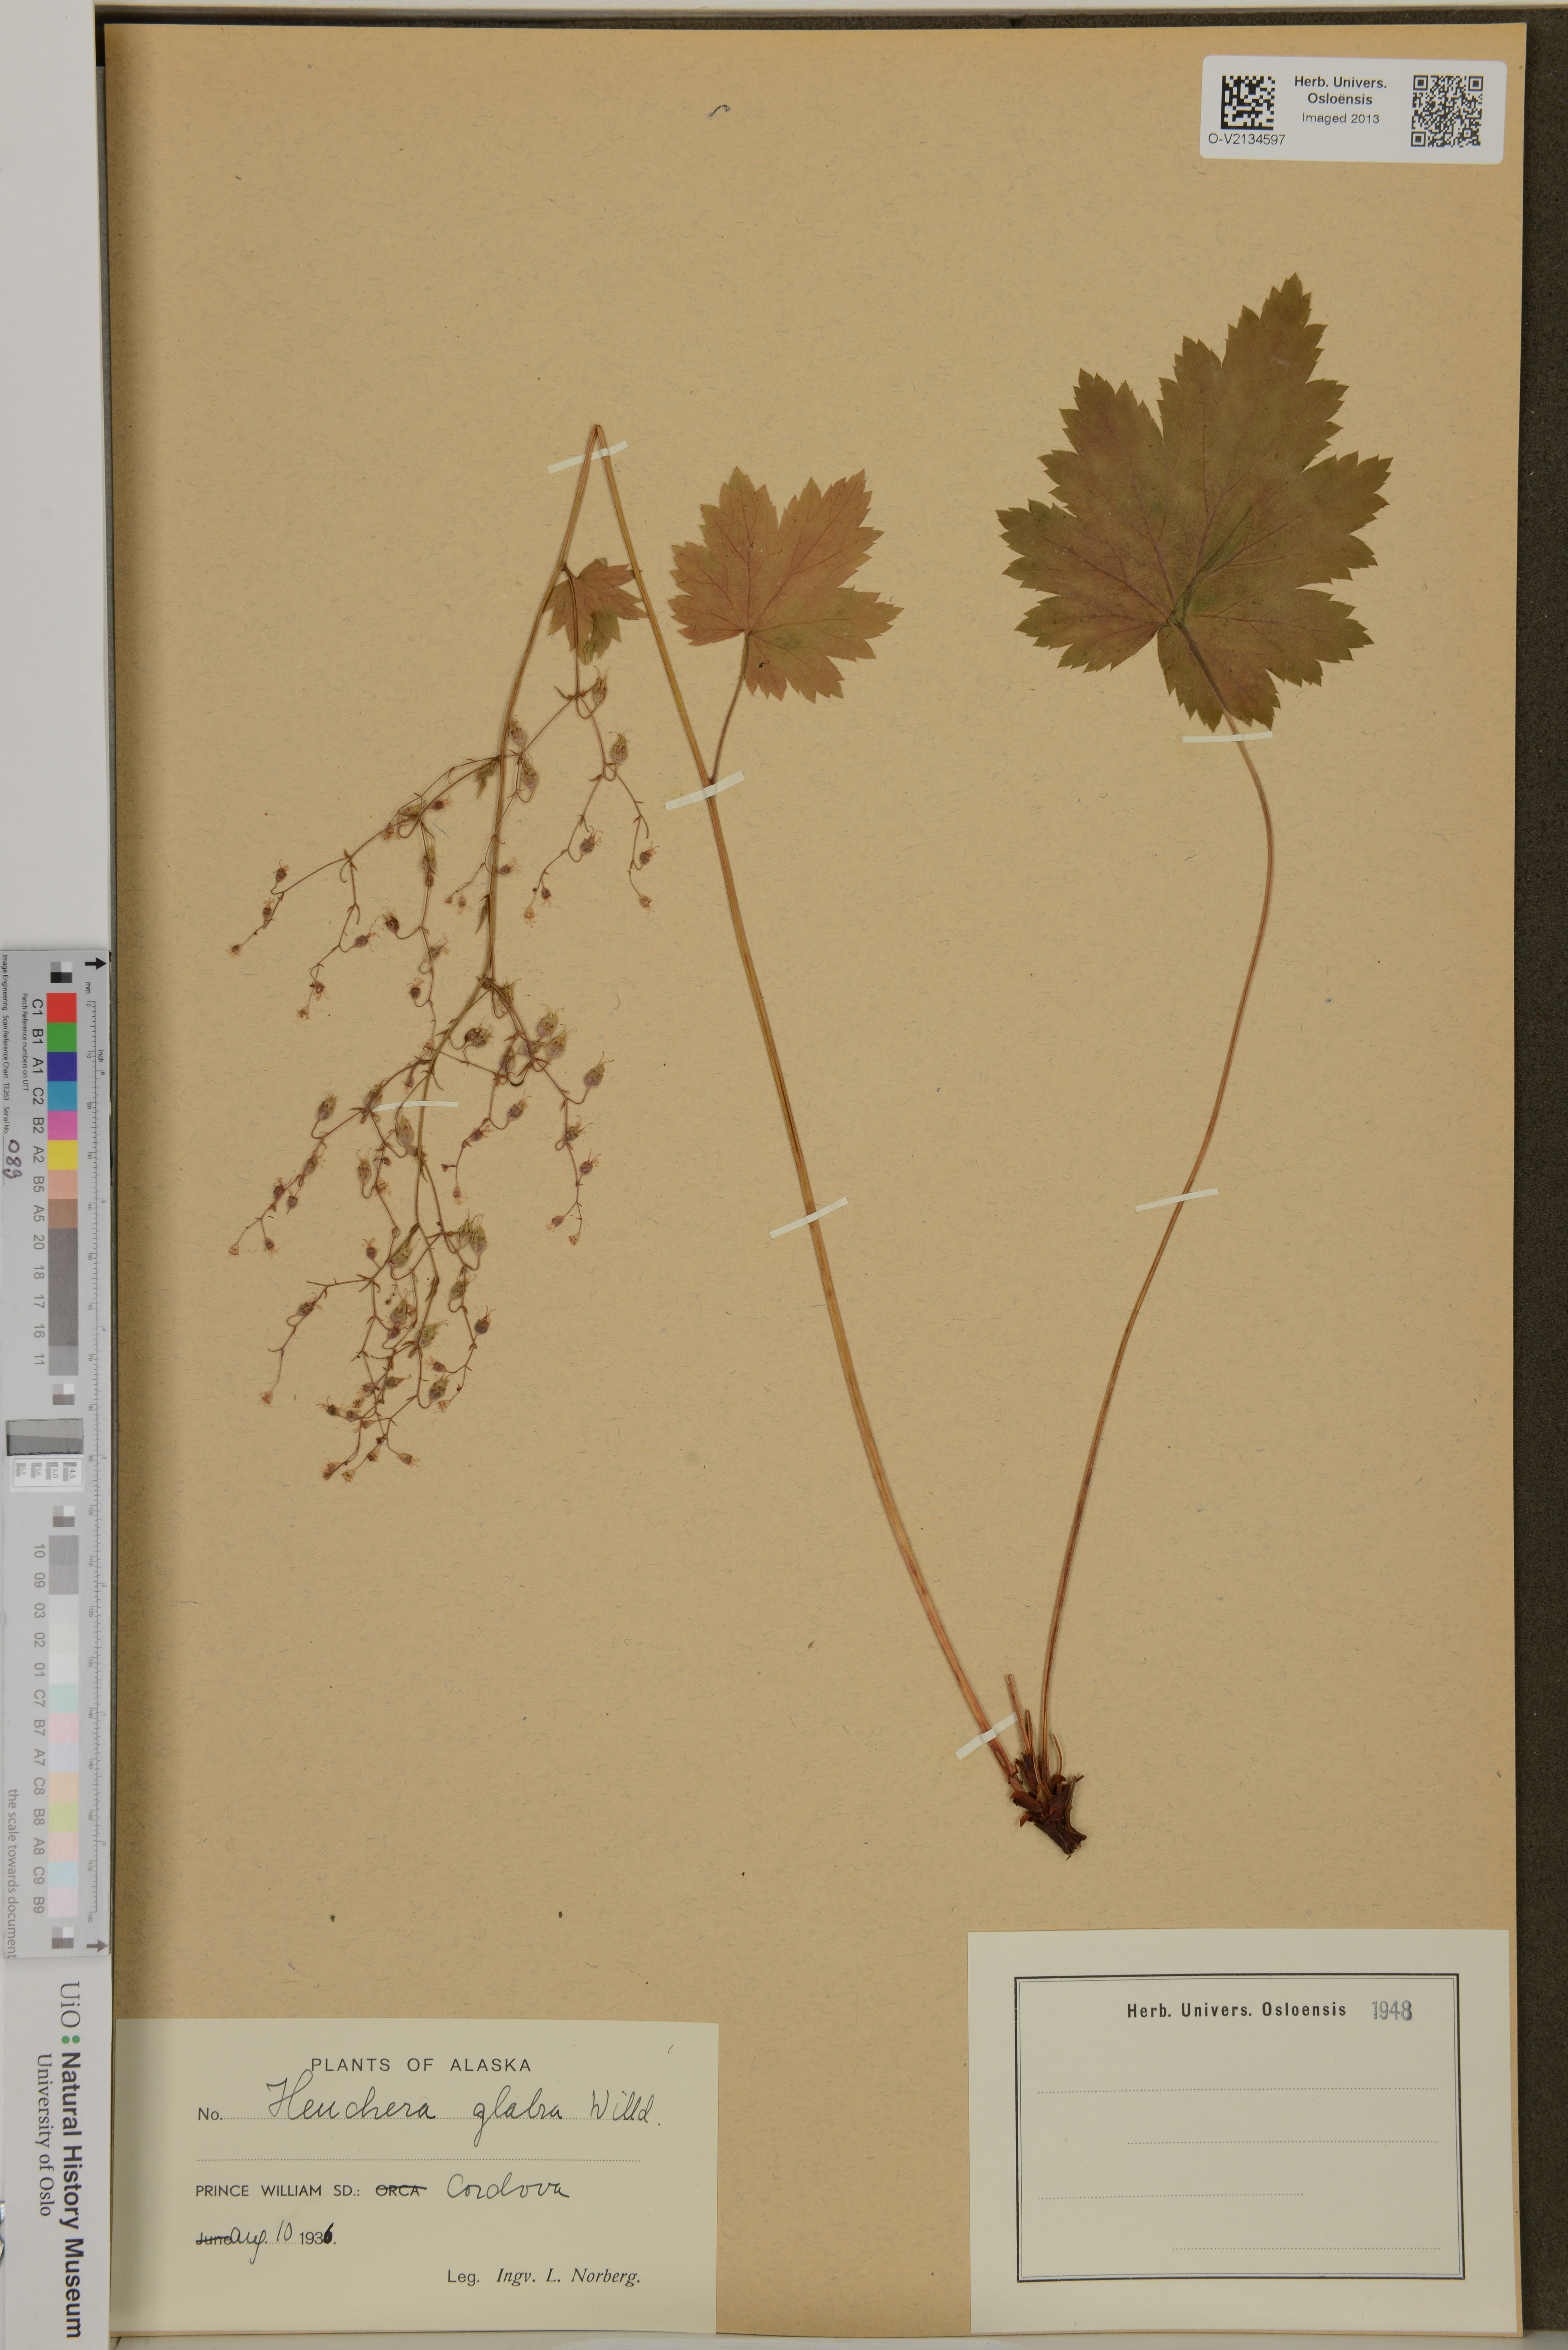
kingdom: Plantae
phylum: Tracheophyta
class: Magnoliopsida
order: Saxifragales
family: Saxifragaceae
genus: Heuchera
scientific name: Heuchera glabra
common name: Alpine alumroot
